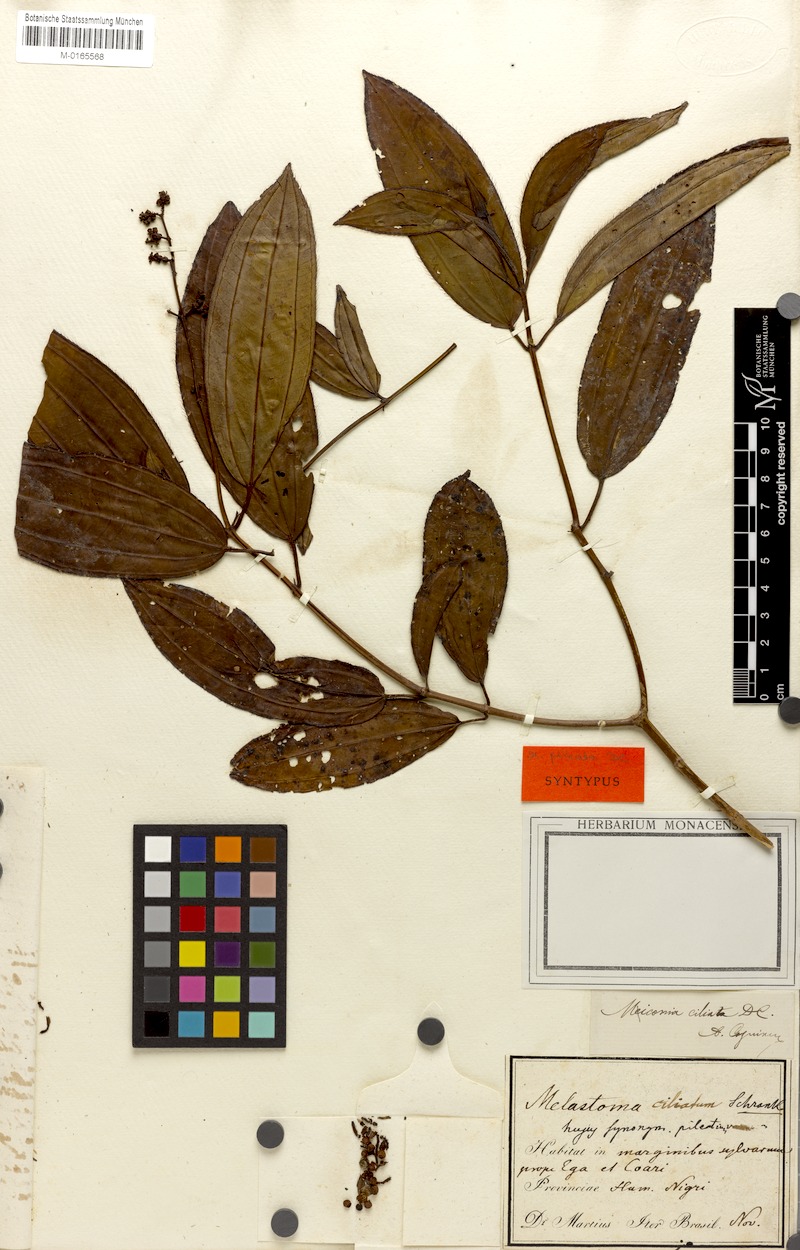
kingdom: Plantae
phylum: Tracheophyta
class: Magnoliopsida
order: Myrtales
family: Melastomataceae
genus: Miconia
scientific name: Miconia ciliata
